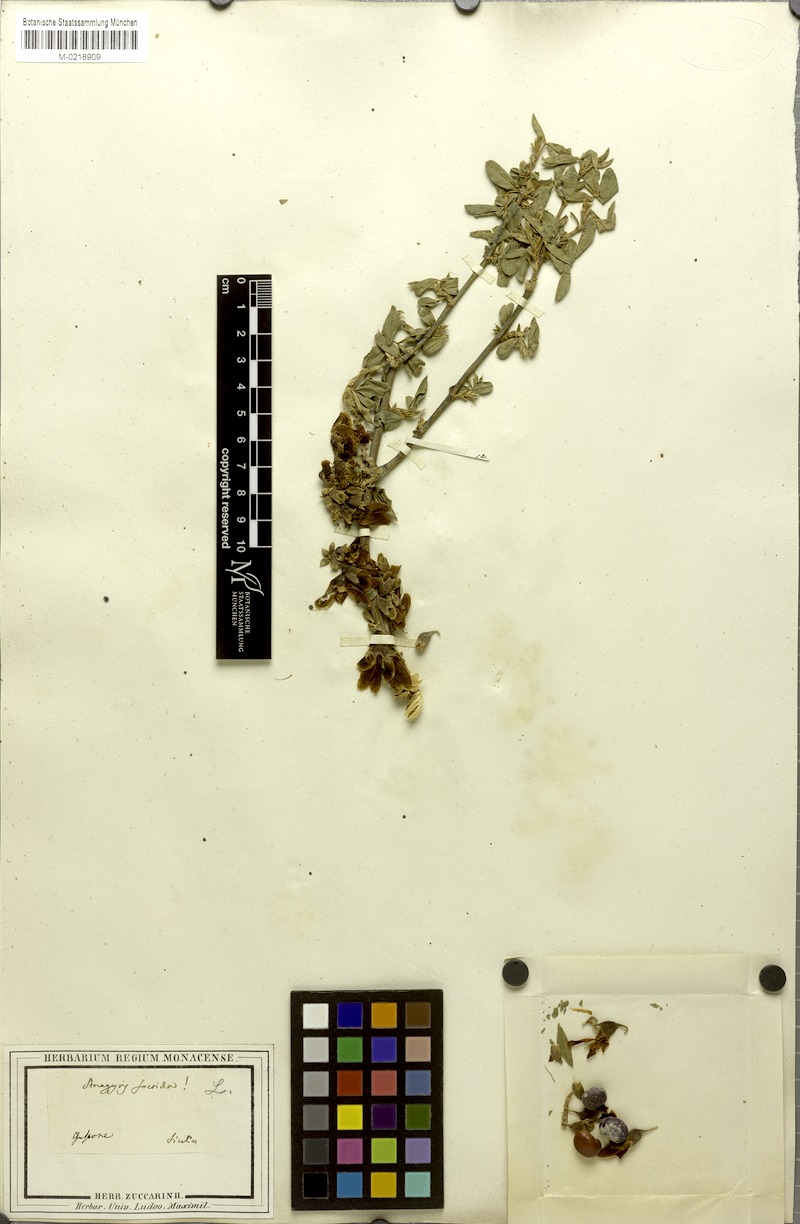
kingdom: Plantae
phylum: Tracheophyta
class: Magnoliopsida
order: Fabales
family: Fabaceae
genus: Anagyris
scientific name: Anagyris foetida
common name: Stinking bean trefoil
